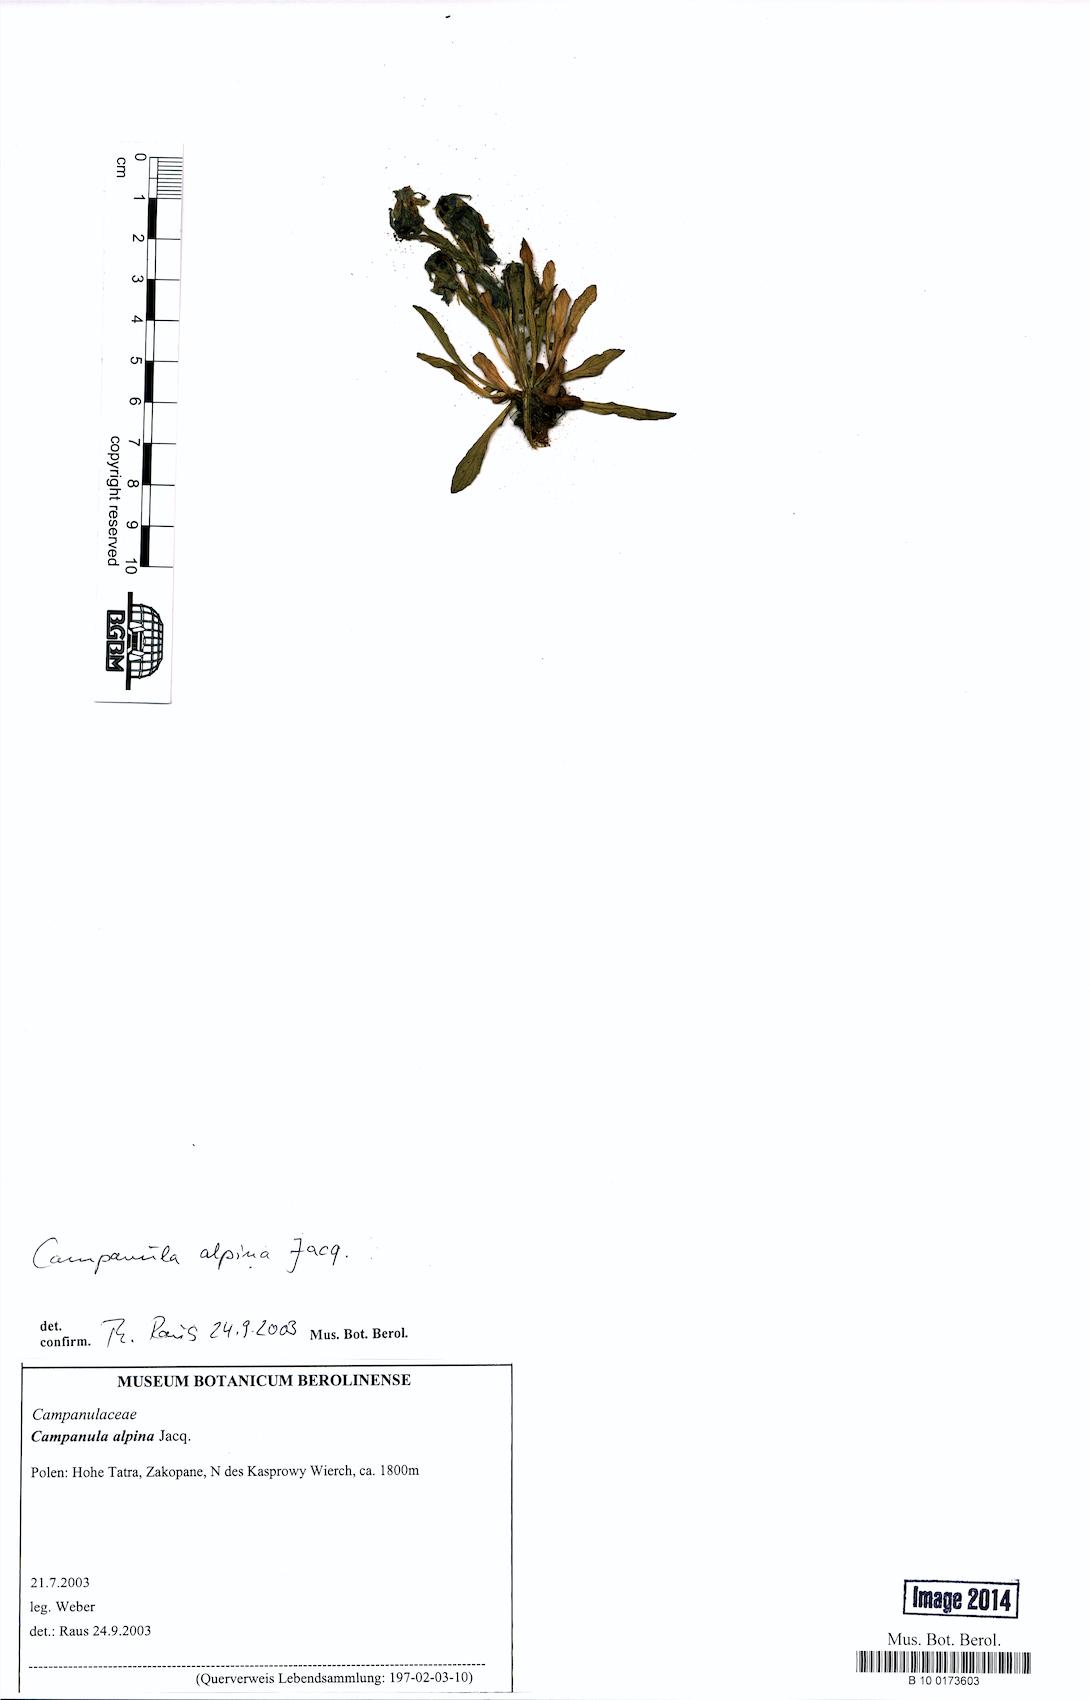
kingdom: Plantae
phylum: Tracheophyta
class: Magnoliopsida
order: Asterales
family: Campanulaceae
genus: Campanula
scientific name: Campanula alpina
